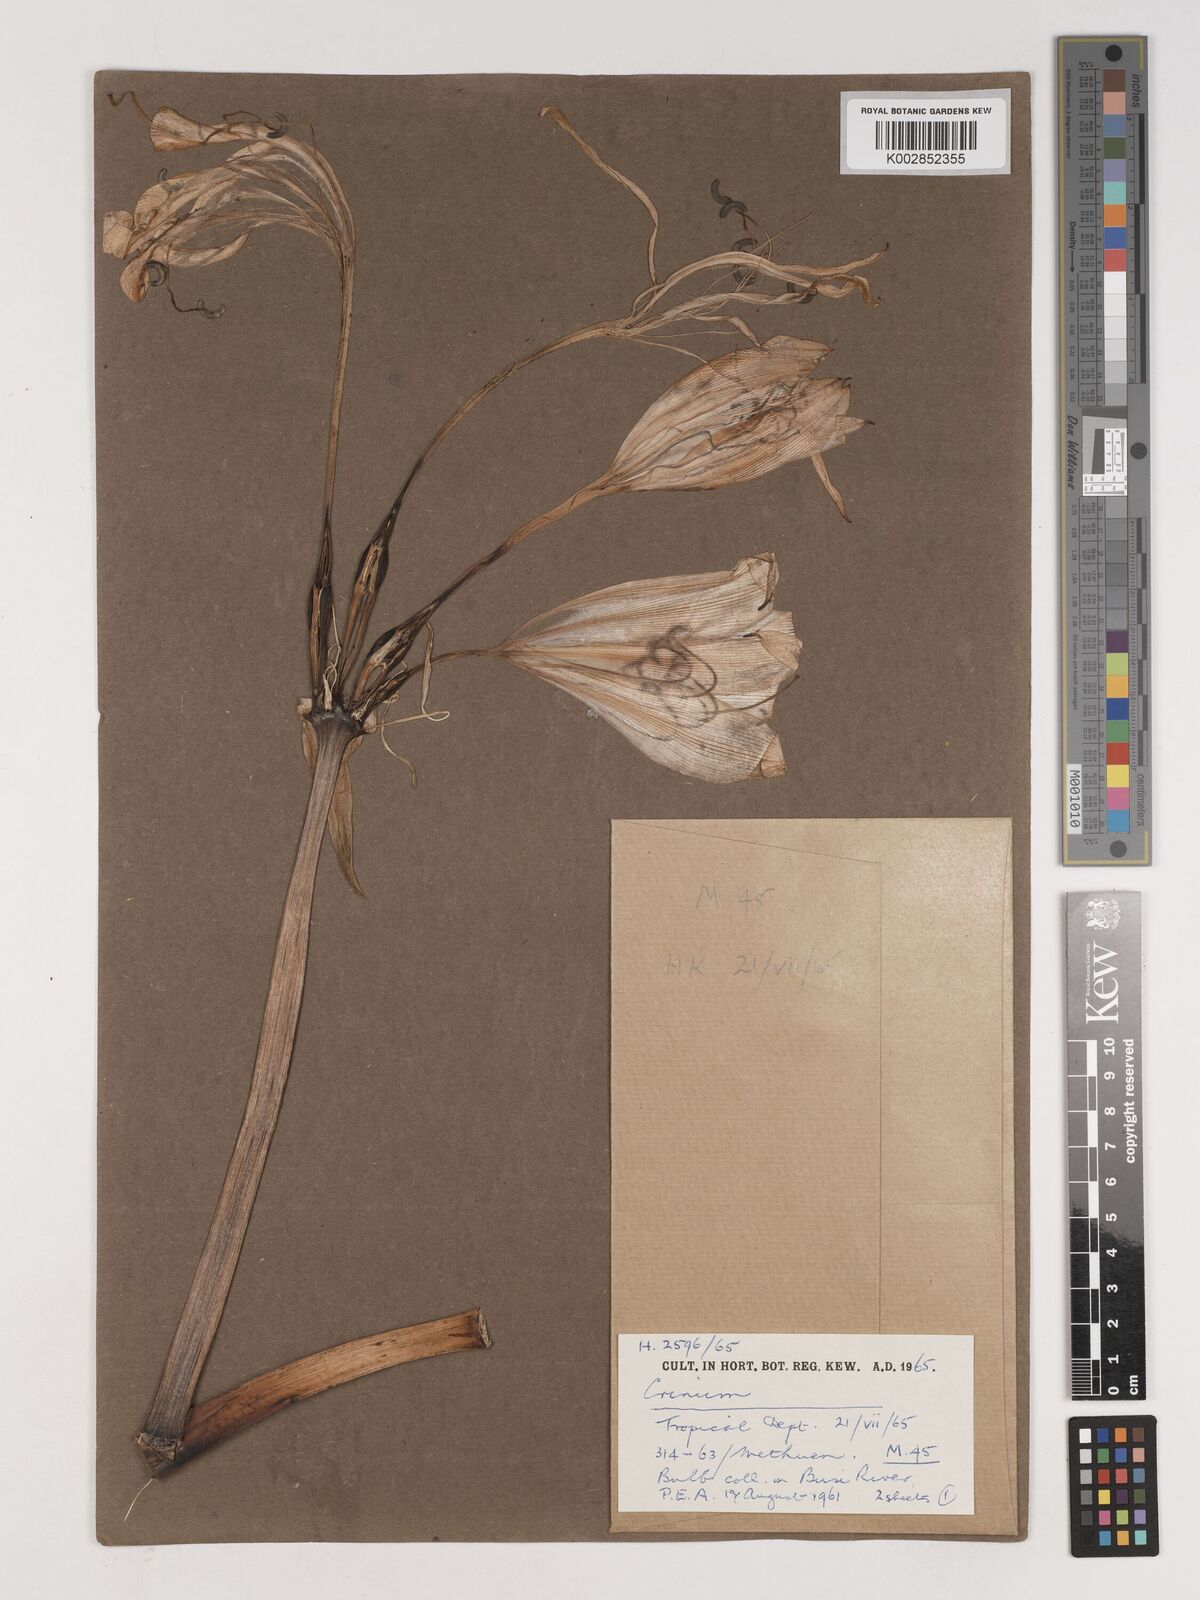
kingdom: Plantae
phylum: Tracheophyta
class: Liliopsida
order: Asparagales
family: Amaryllidaceae
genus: Crinum
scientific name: Crinum macowanii
